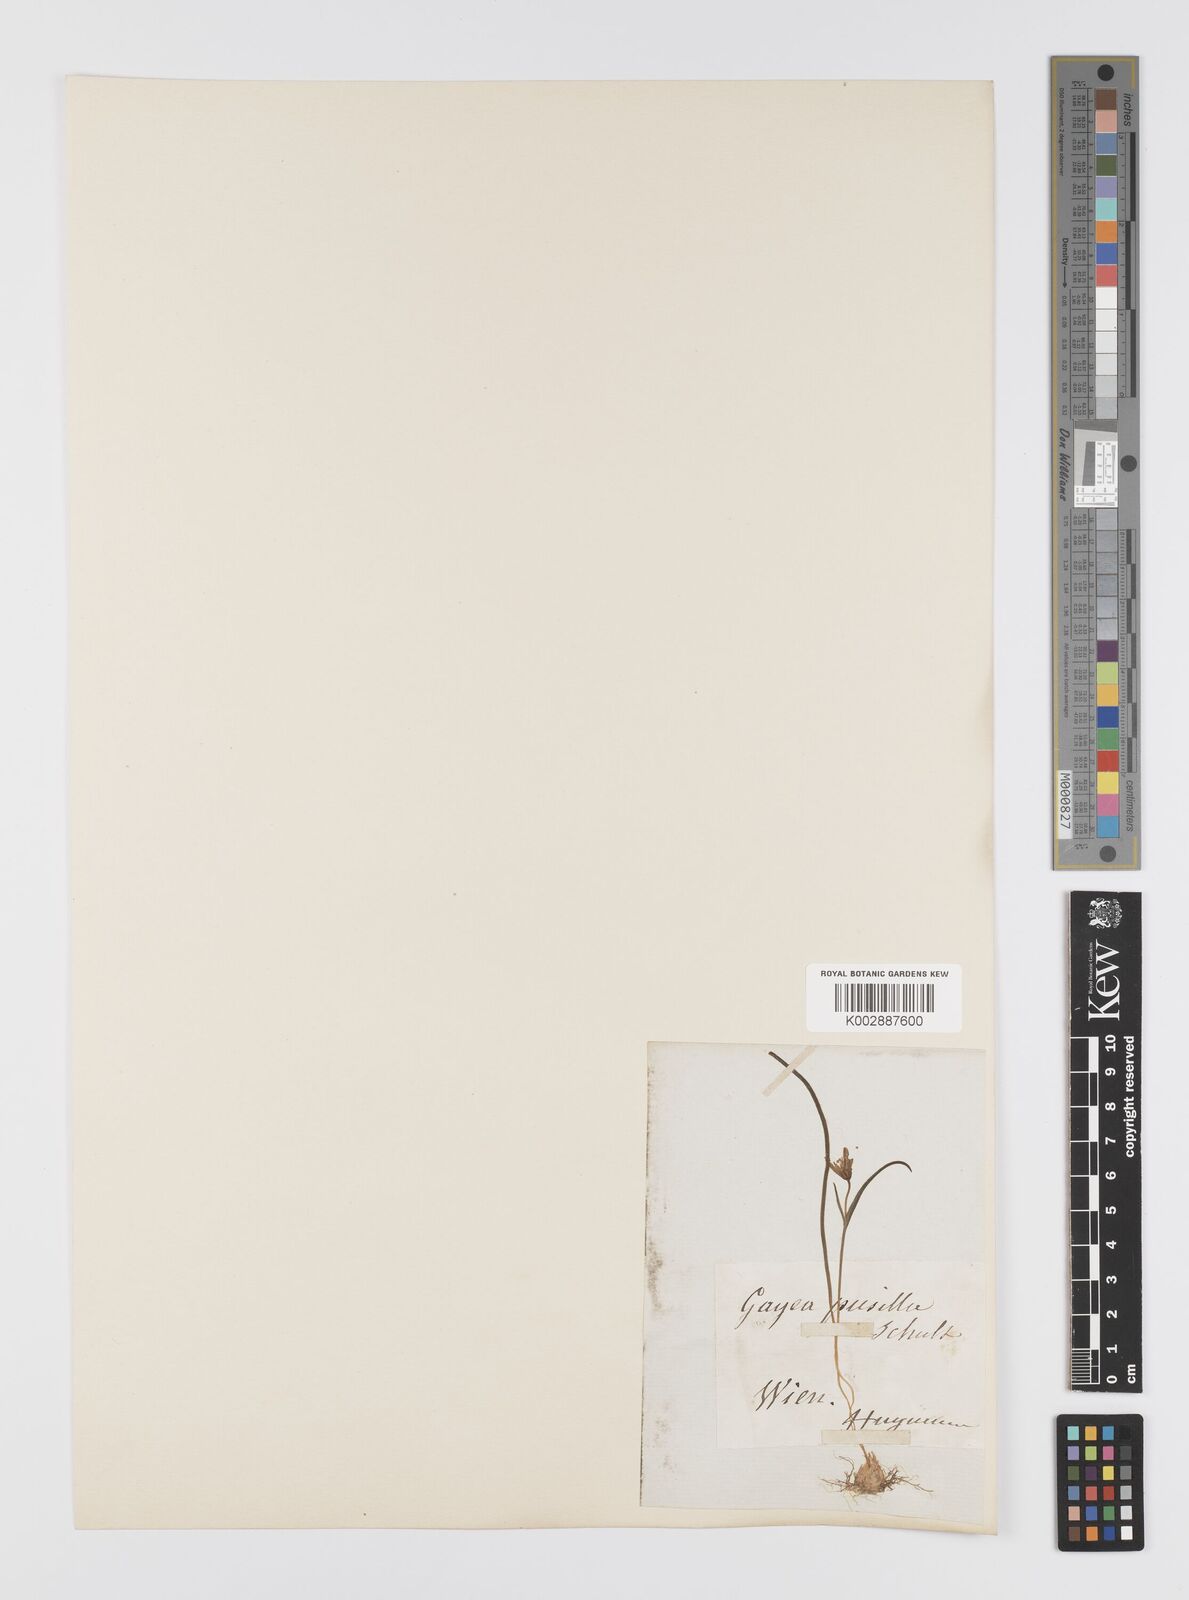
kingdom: Plantae
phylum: Tracheophyta
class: Liliopsida
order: Liliales
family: Liliaceae
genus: Gagea
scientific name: Gagea pusilla
